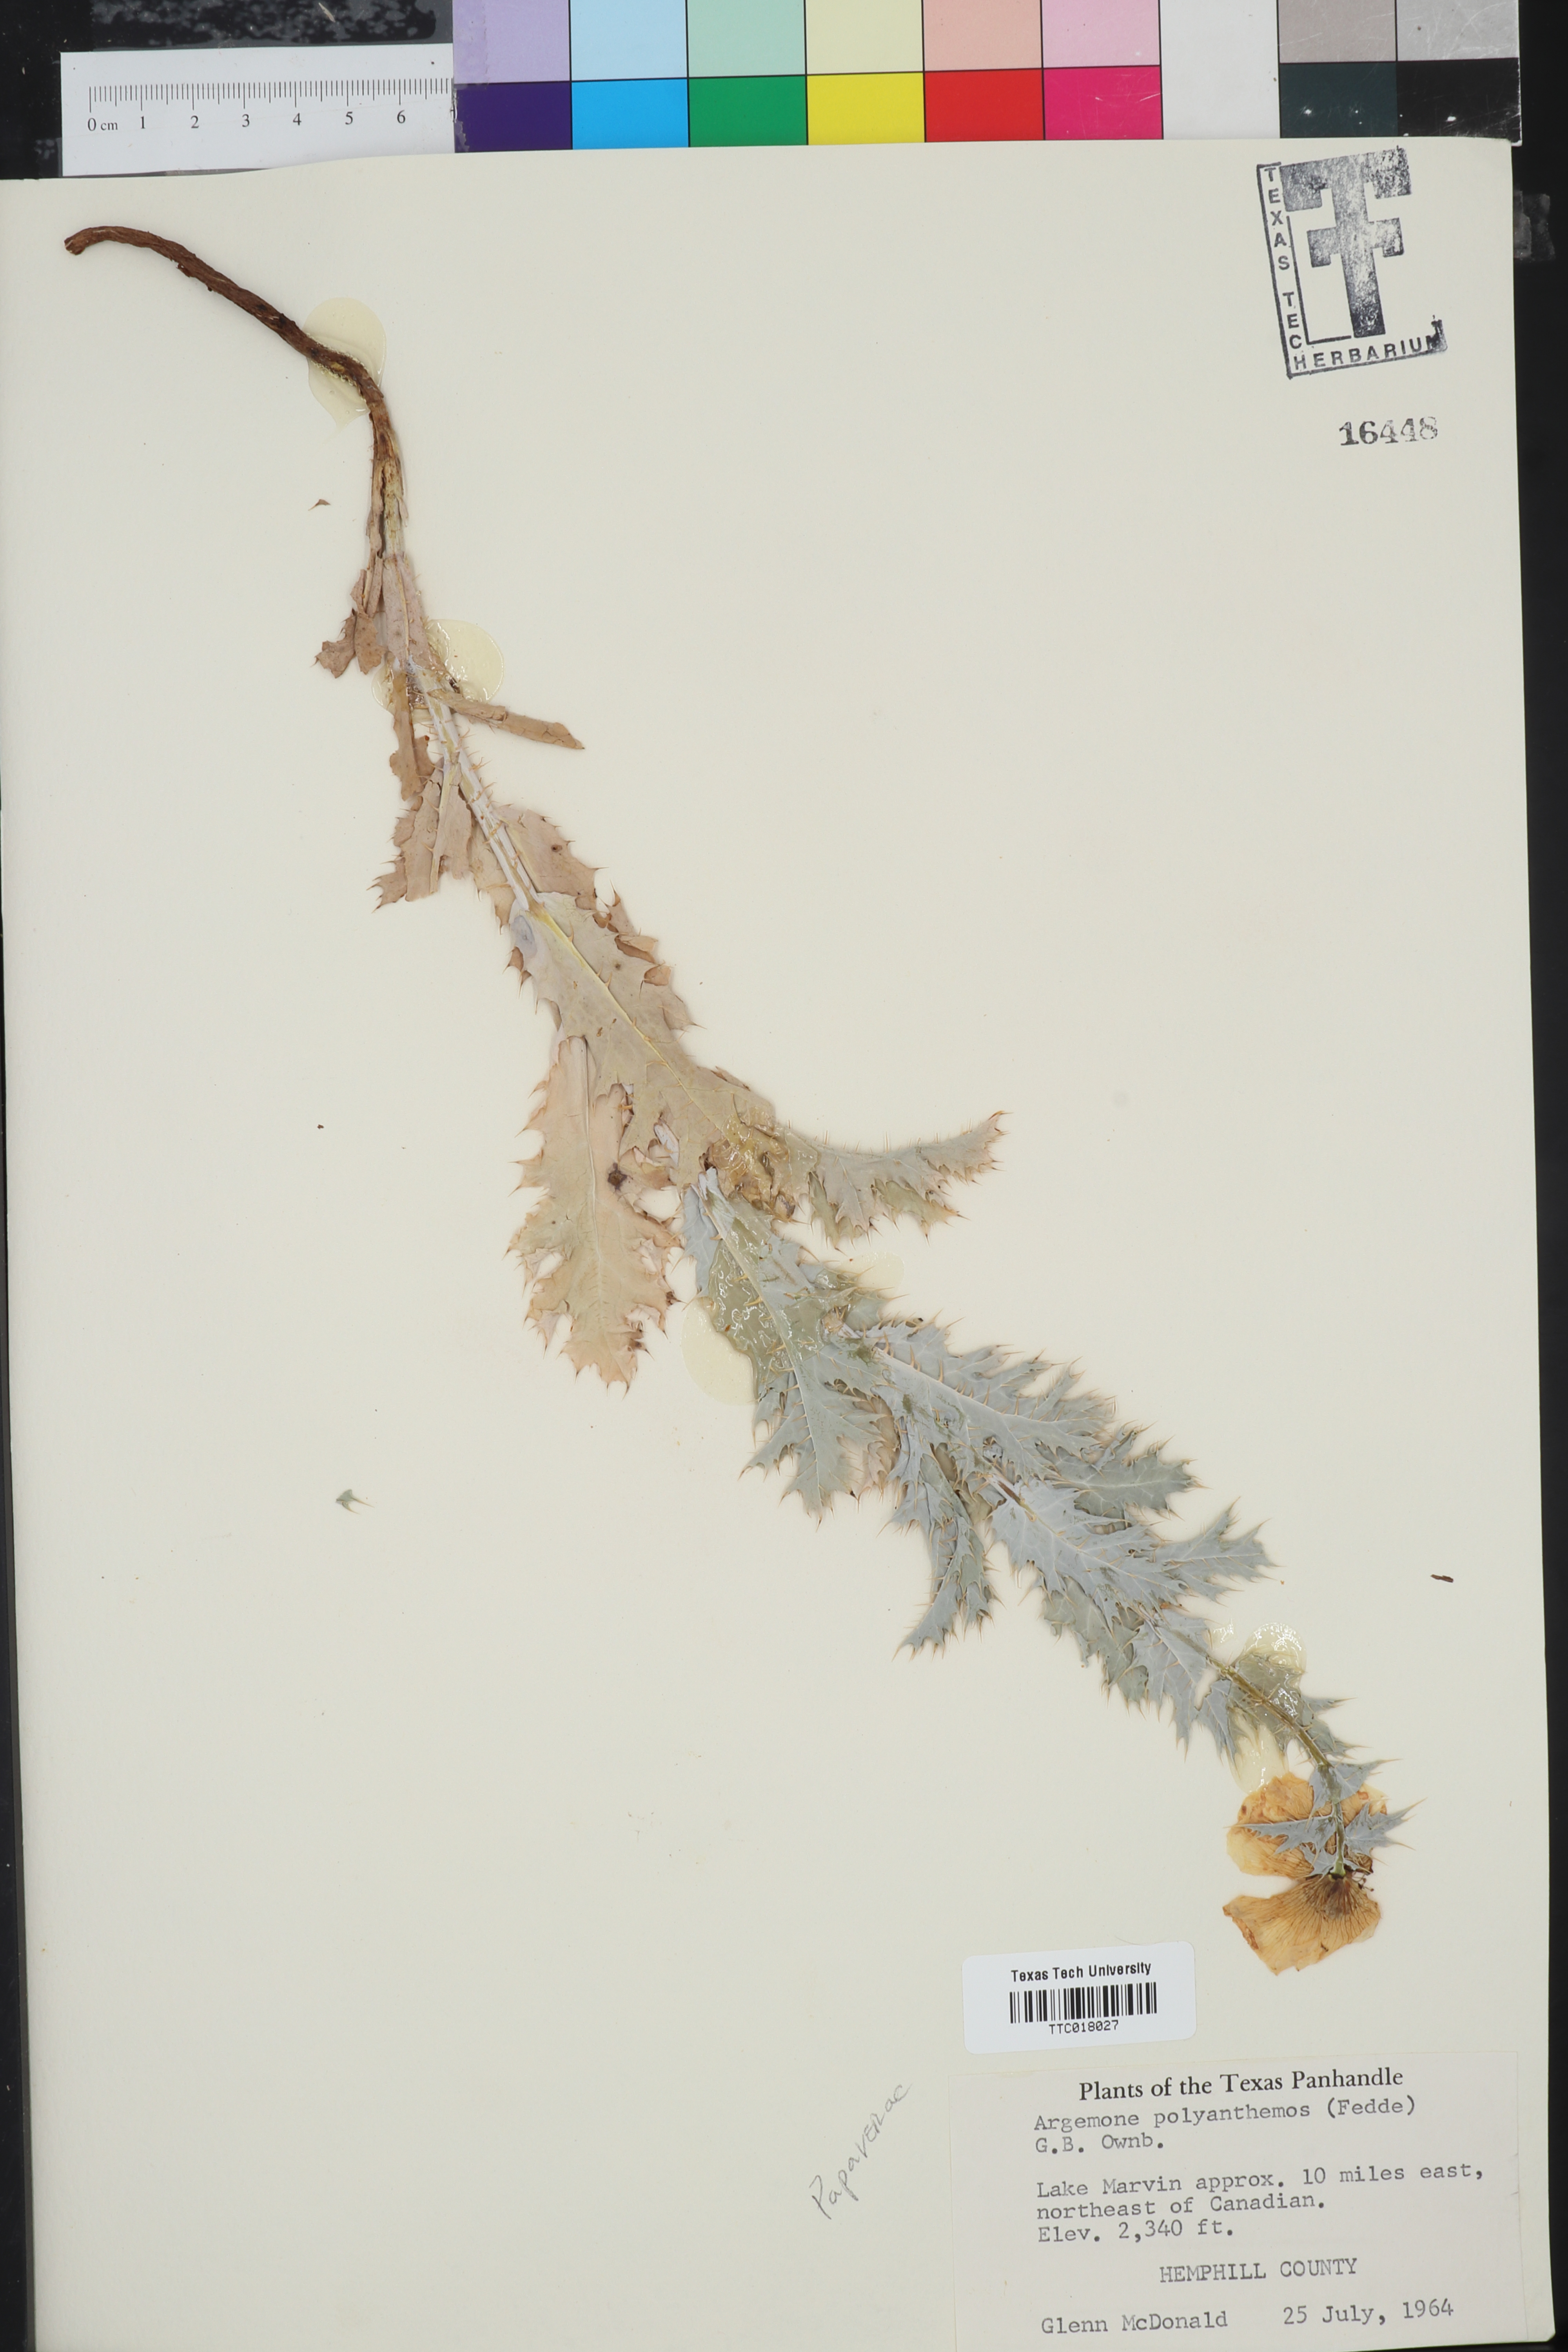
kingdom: Plantae
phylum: Tracheophyta
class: Magnoliopsida
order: Ranunculales
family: Papaveraceae
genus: Argemone
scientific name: Argemone polyanthemos
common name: Plains prickly-poppy
